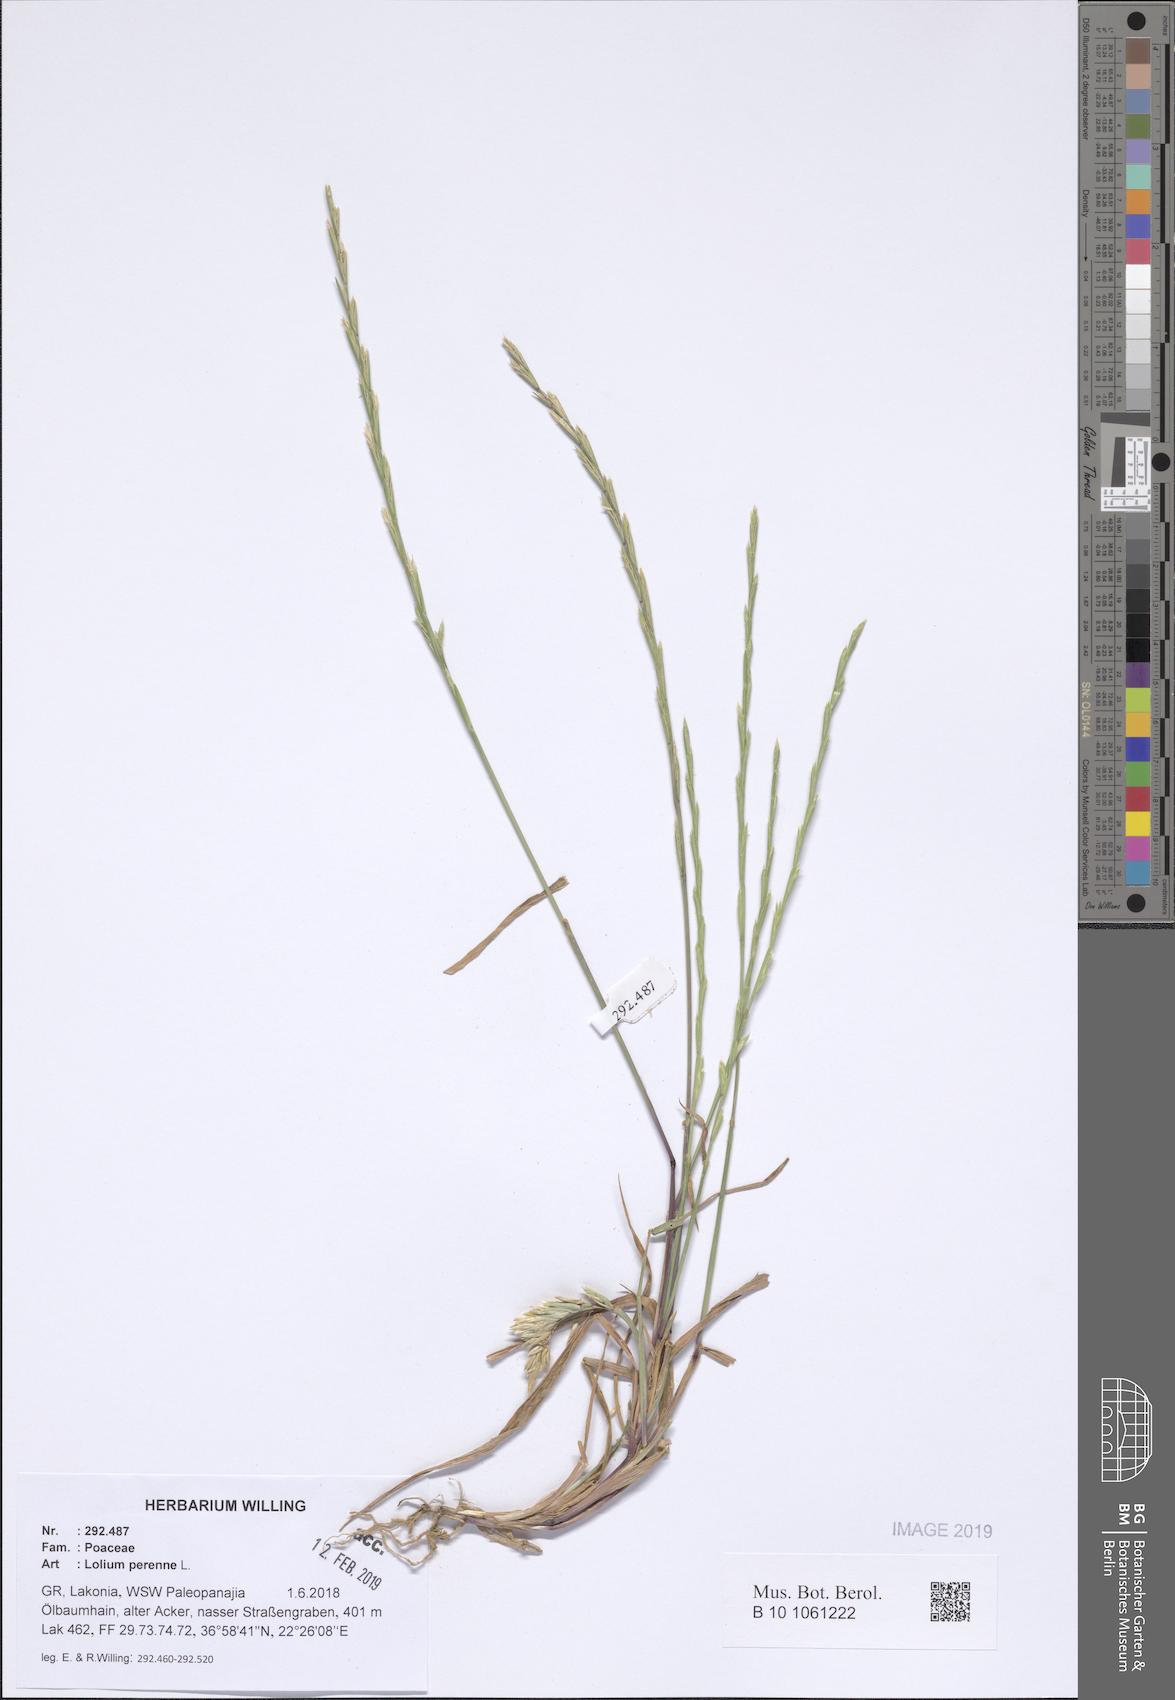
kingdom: Plantae
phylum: Tracheophyta
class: Liliopsida
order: Poales
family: Poaceae
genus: Lolium
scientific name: Lolium perenne
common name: Perennial ryegrass
